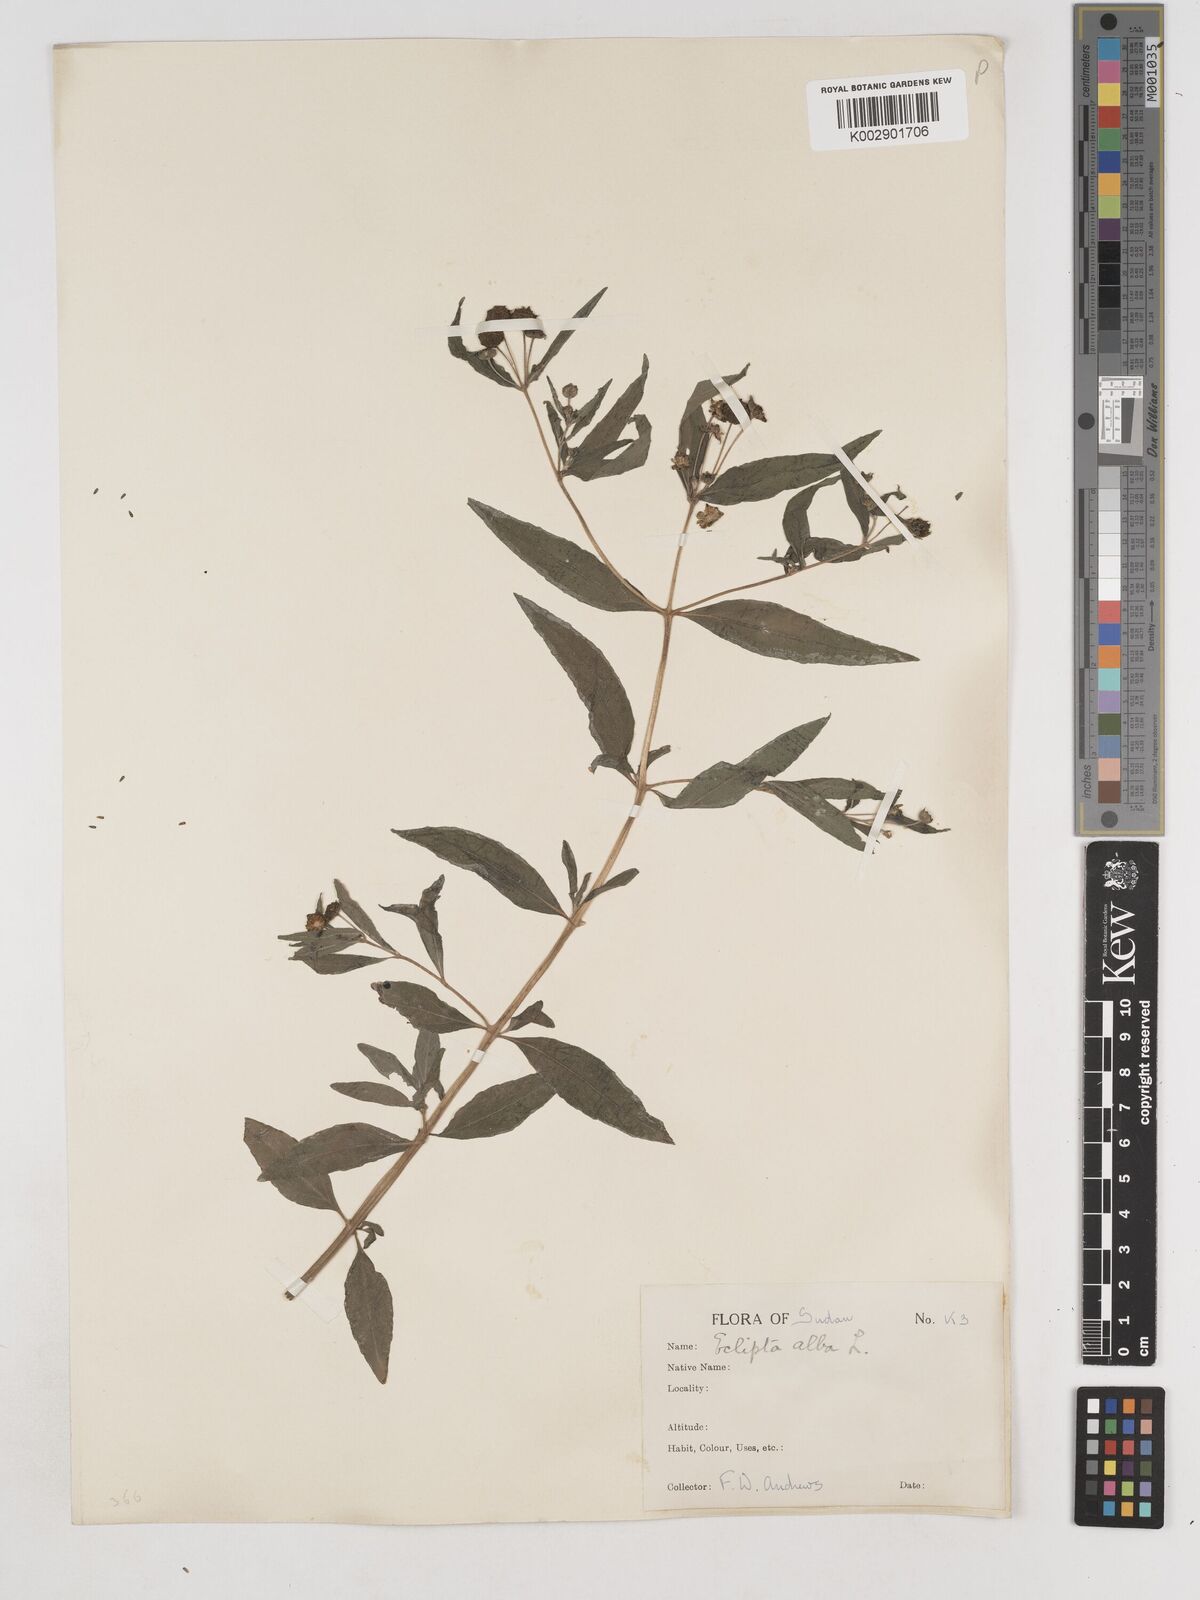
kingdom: Plantae
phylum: Tracheophyta
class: Magnoliopsida
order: Asterales
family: Asteraceae
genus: Eclipta
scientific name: Eclipta alba
